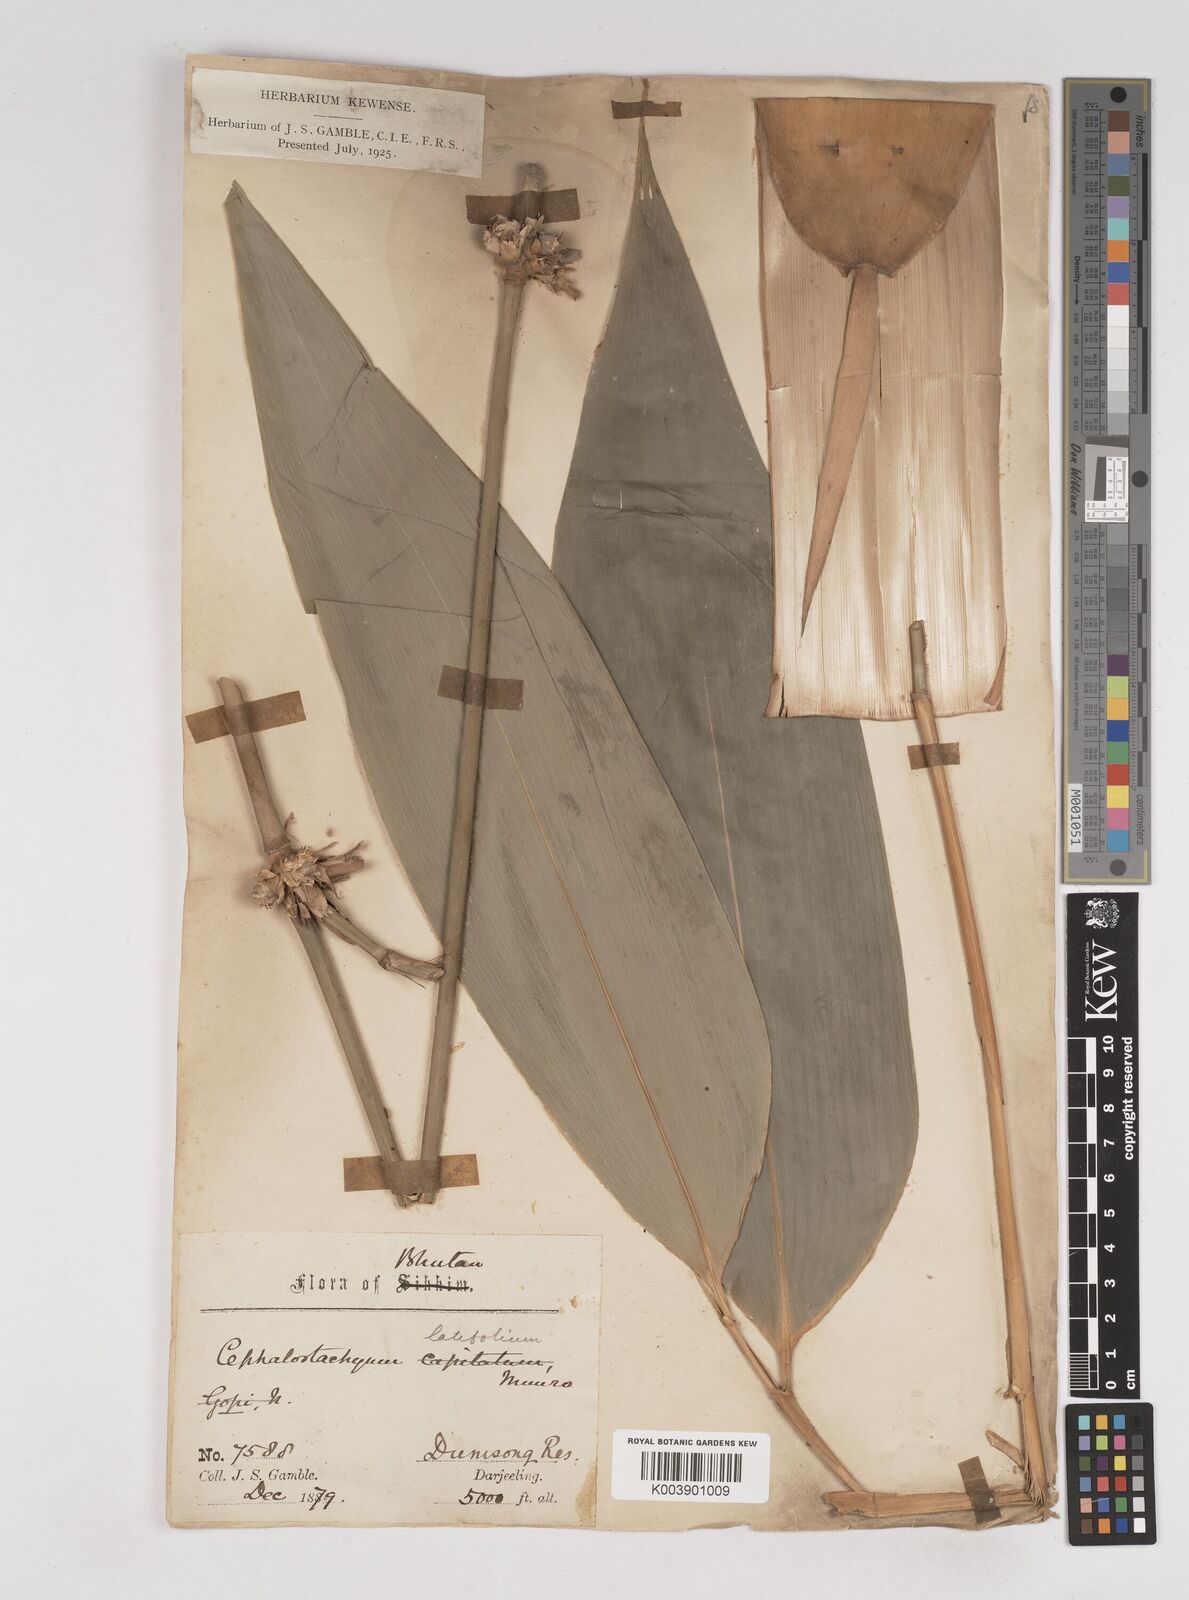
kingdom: Plantae
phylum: Tracheophyta
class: Liliopsida
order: Poales
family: Poaceae
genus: Cephalostachyum
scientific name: Cephalostachyum
